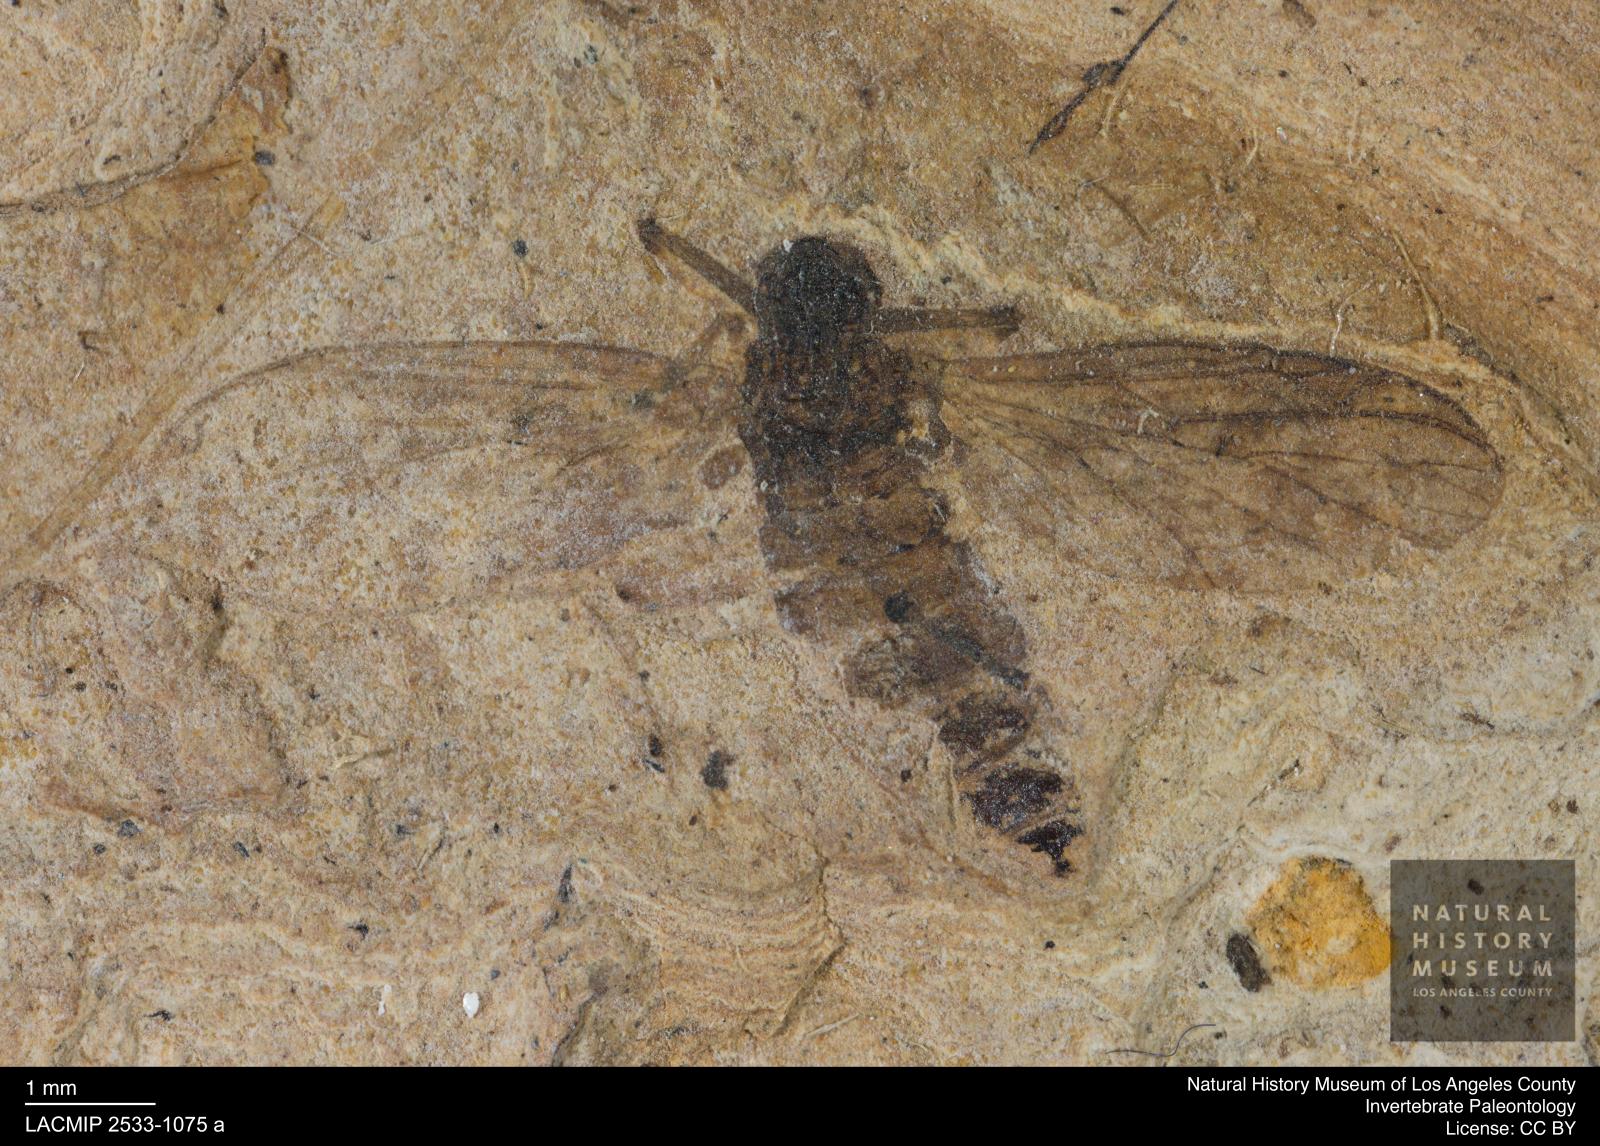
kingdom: Animalia
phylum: Arthropoda
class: Insecta
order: Diptera
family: Bibionidae
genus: Plecia
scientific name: Plecia pinguis
